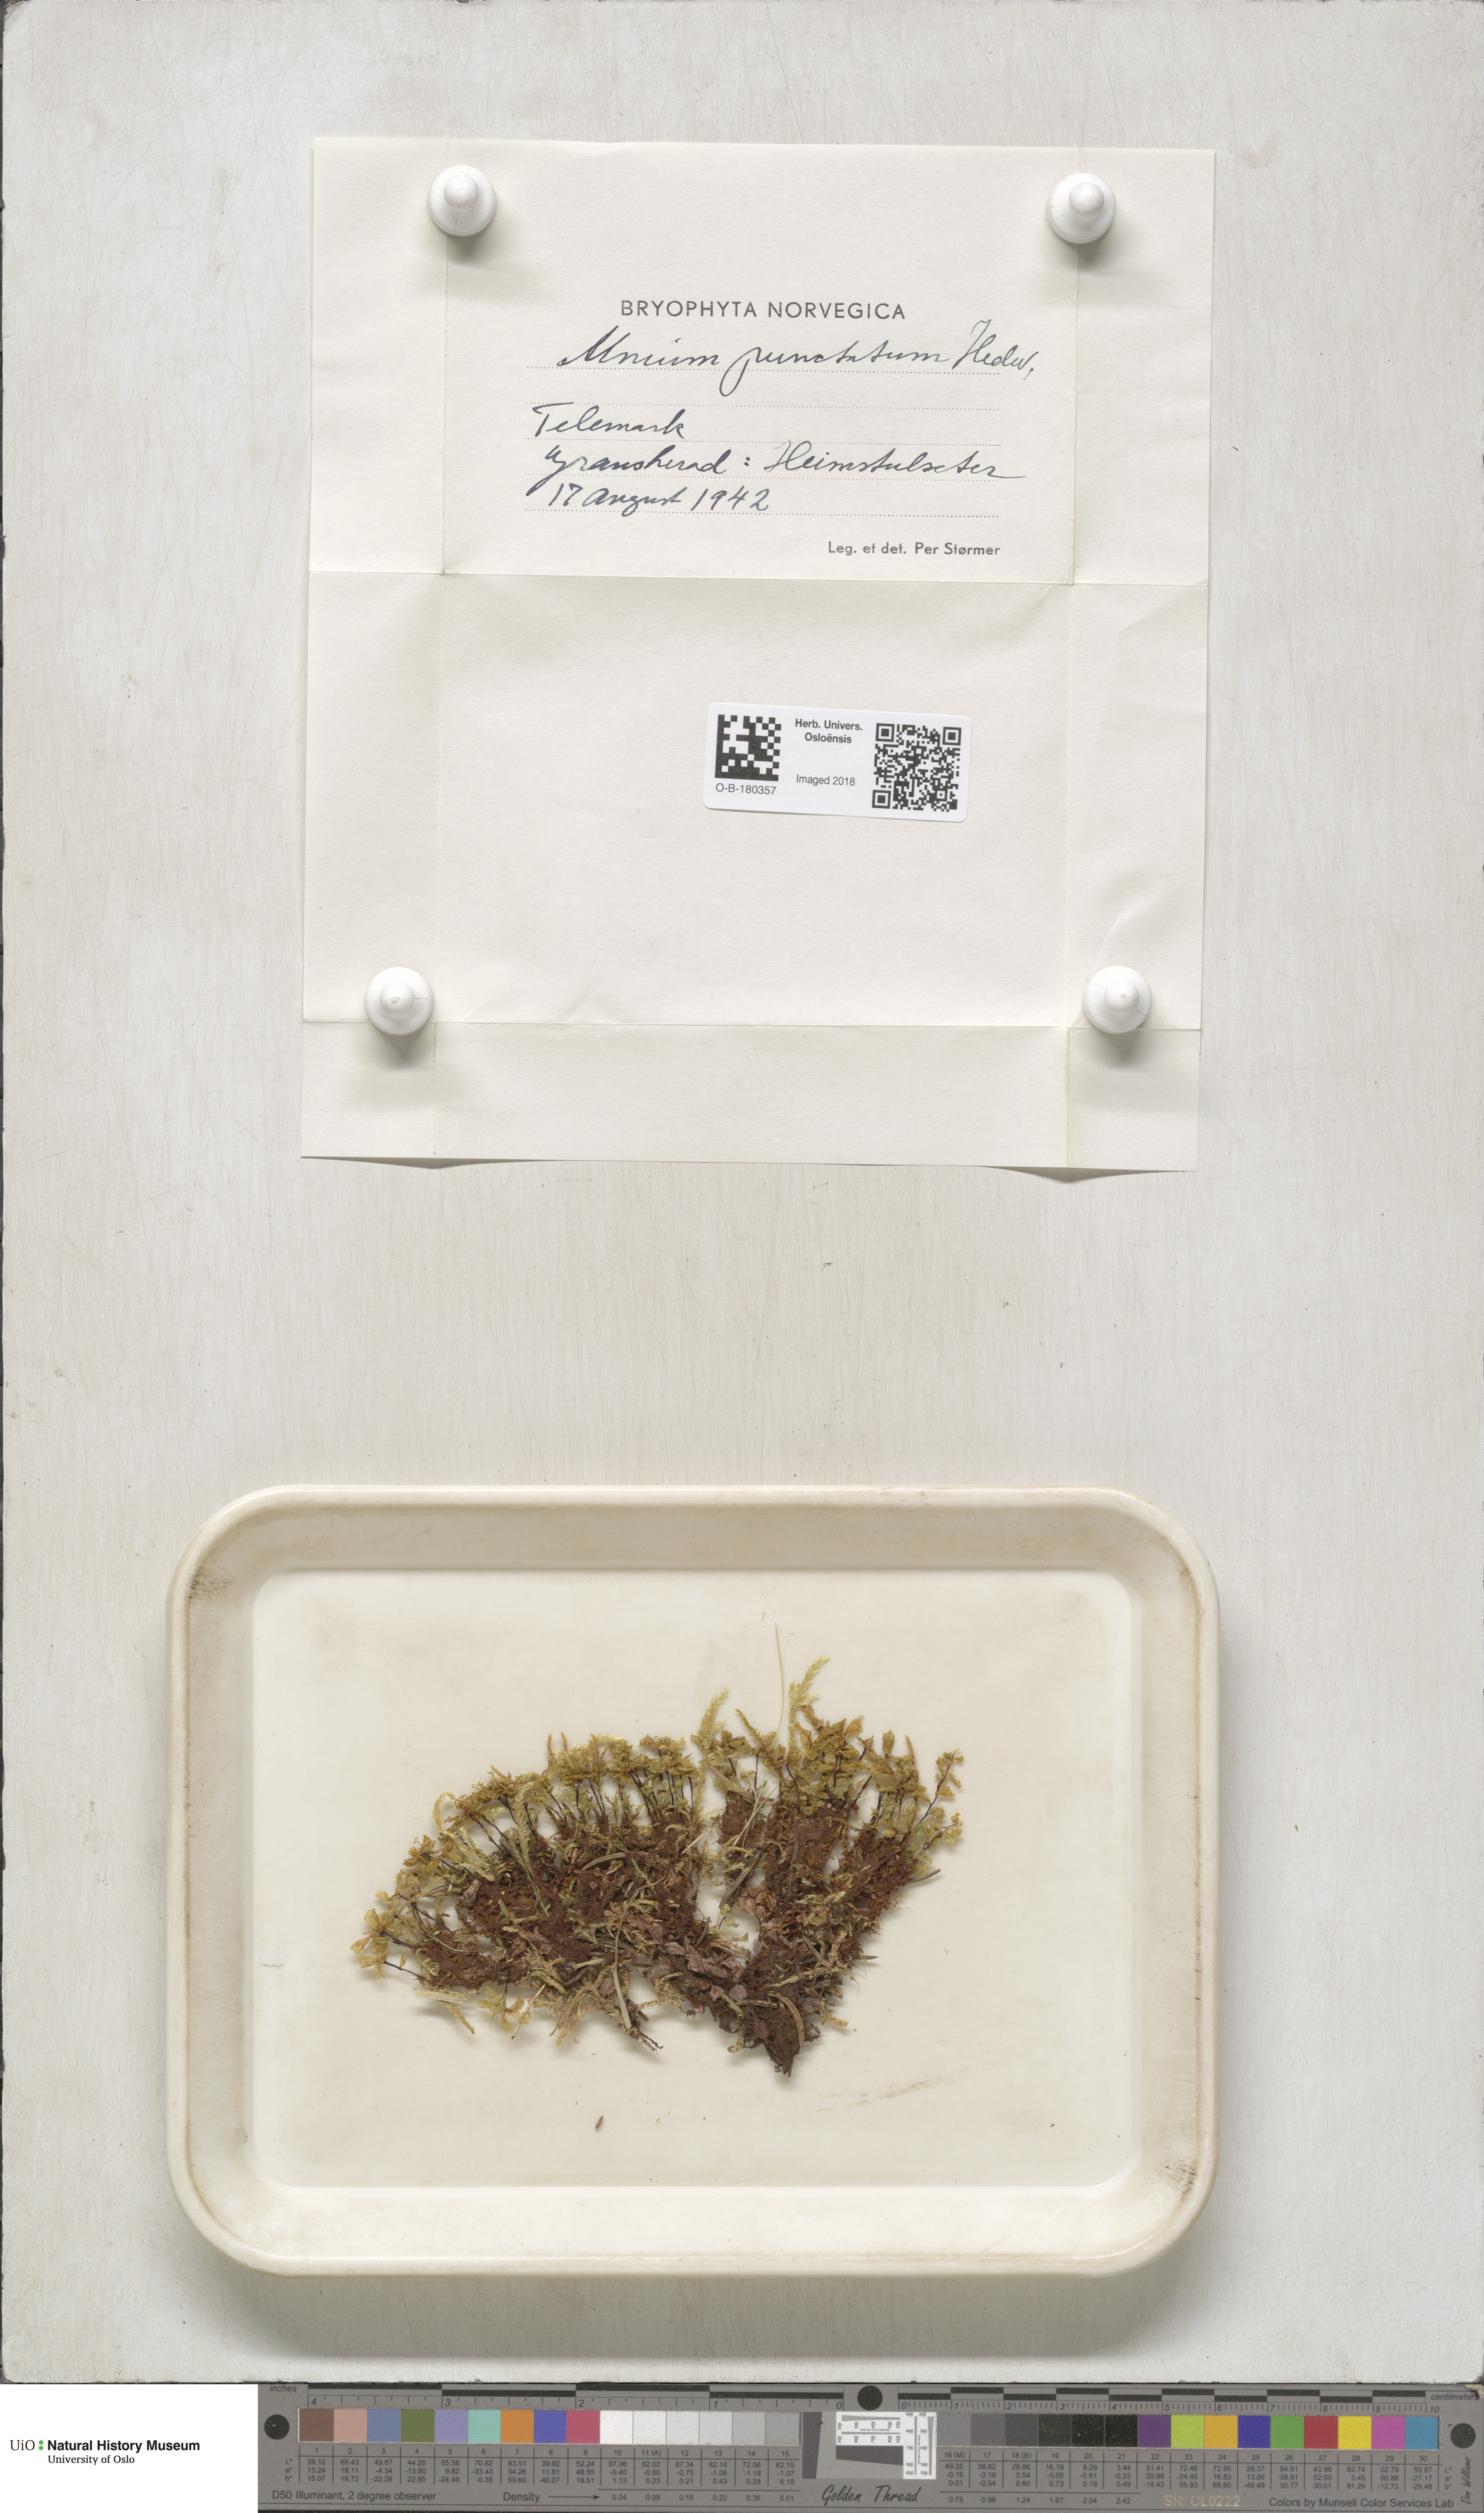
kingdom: Plantae
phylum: Bryophyta
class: Bryopsida
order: Bryales
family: Mniaceae
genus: Rhizomnium
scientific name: Rhizomnium punctatum
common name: Dotted leafy moss
